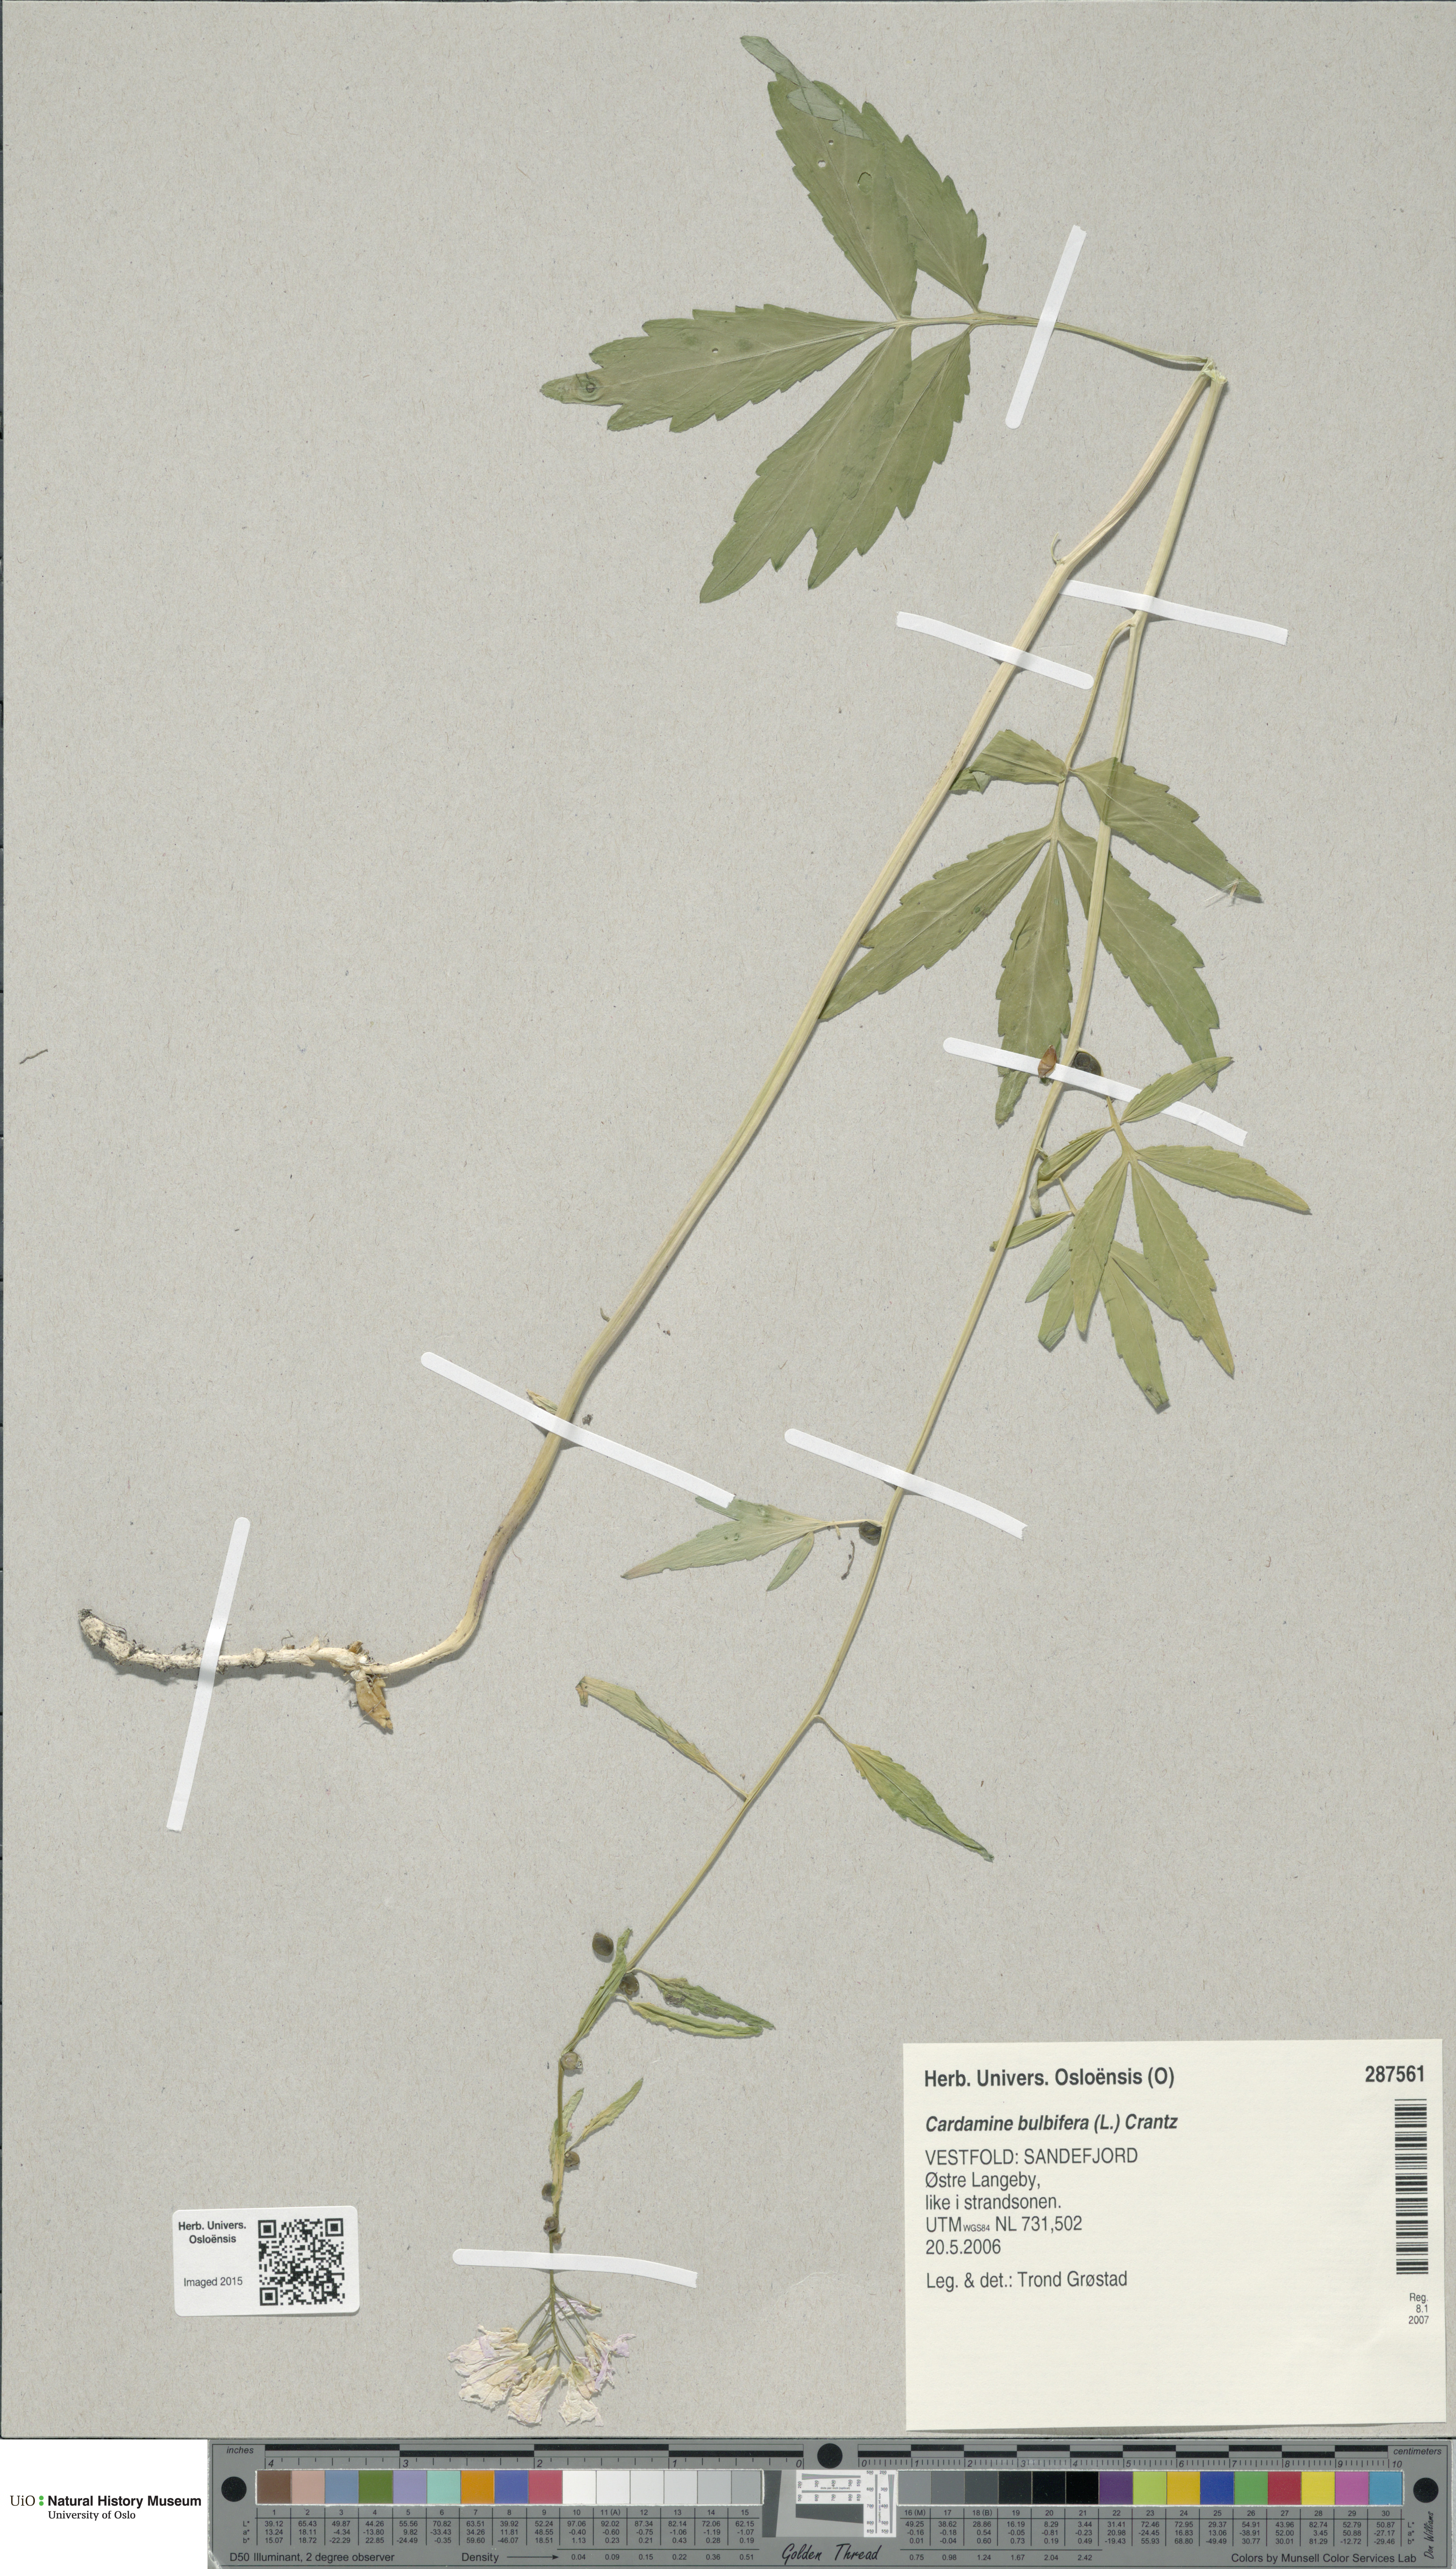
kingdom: Plantae
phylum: Tracheophyta
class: Magnoliopsida
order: Brassicales
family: Brassicaceae
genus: Cardamine
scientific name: Cardamine bulbifera
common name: Coralroot bittercress
